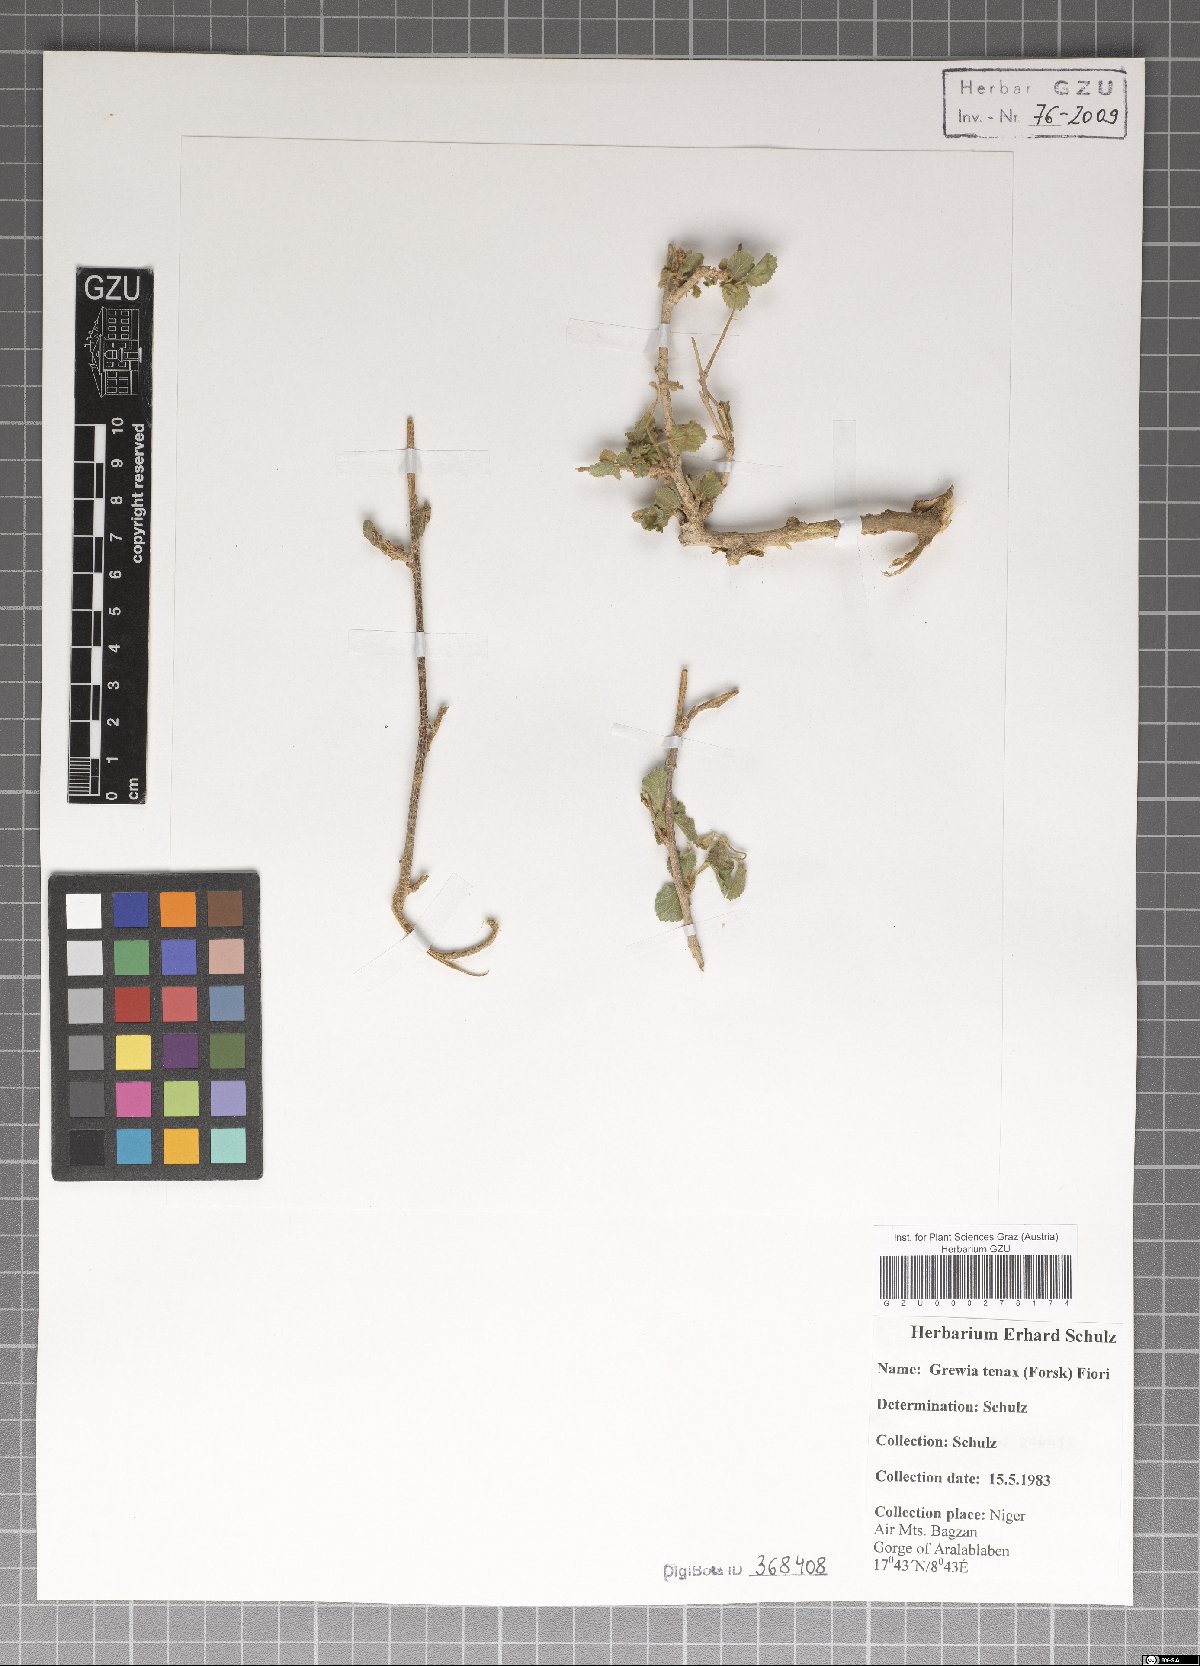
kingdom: Plantae
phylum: Tracheophyta
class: Magnoliopsida
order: Malvales
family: Malvaceae
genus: Grewia
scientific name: Grewia tenax
